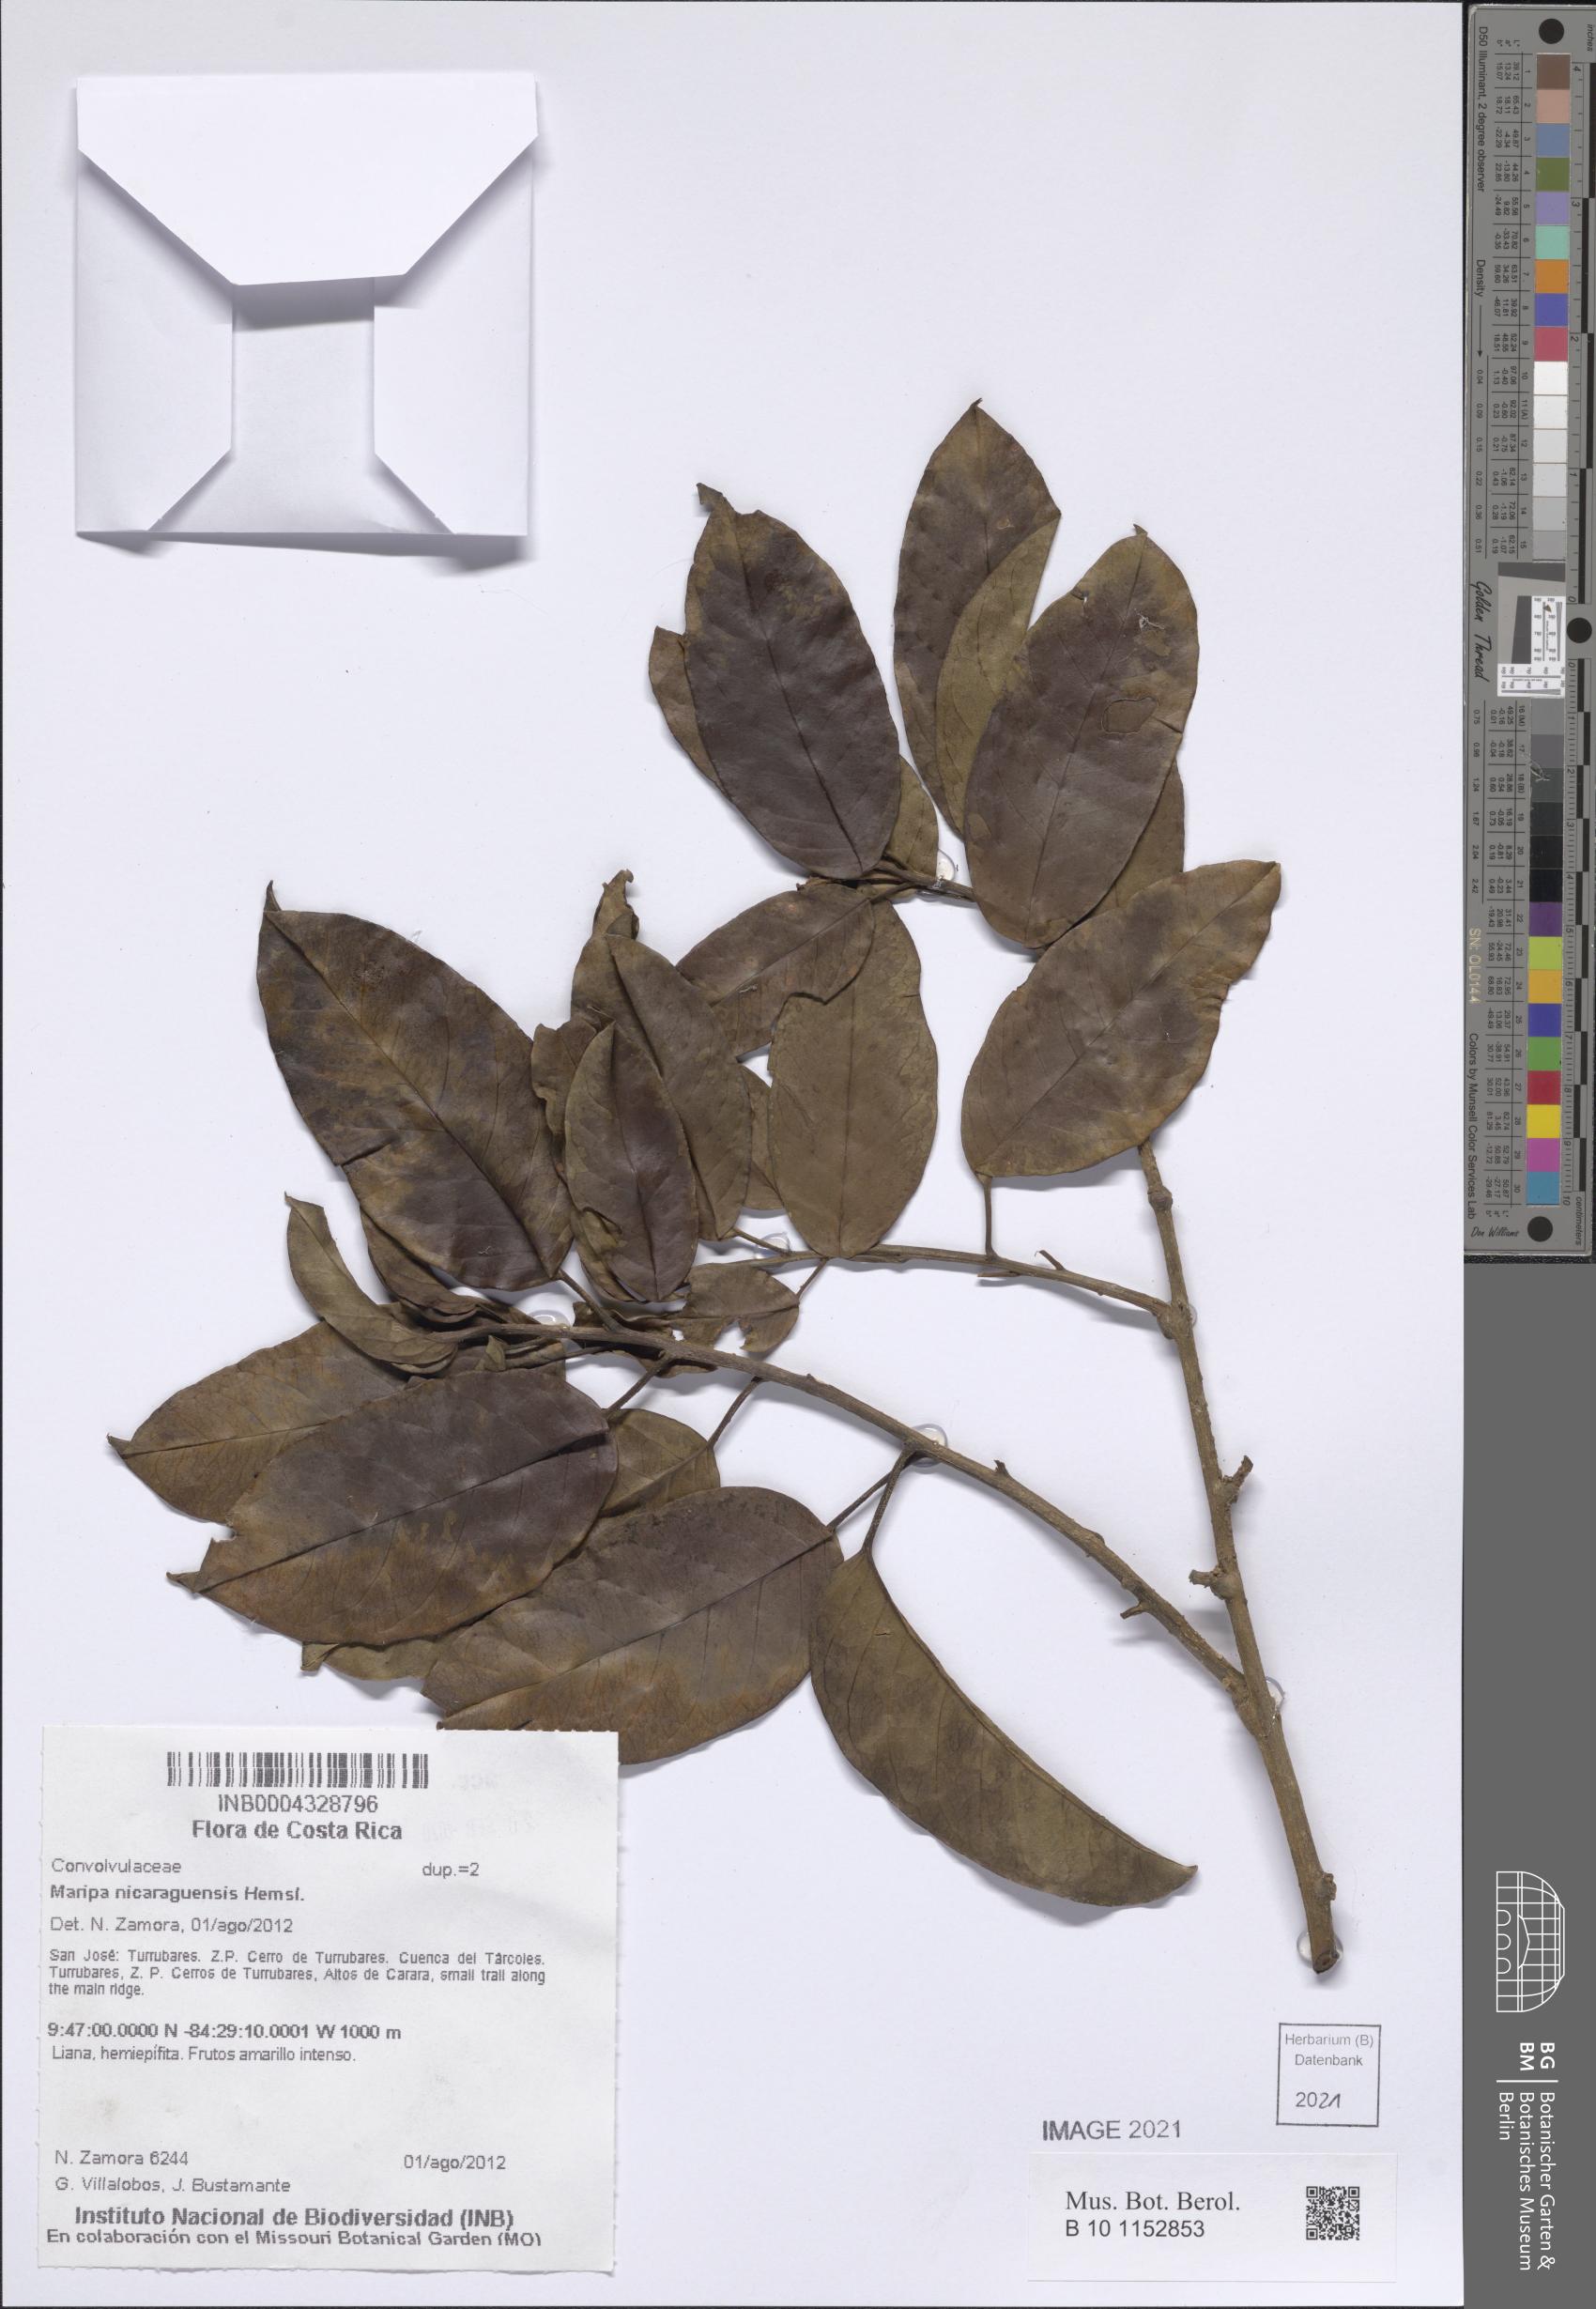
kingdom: Plantae
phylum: Tracheophyta
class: Magnoliopsida
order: Solanales
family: Convolvulaceae
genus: Maripa
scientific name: Maripa nicaraguensis
